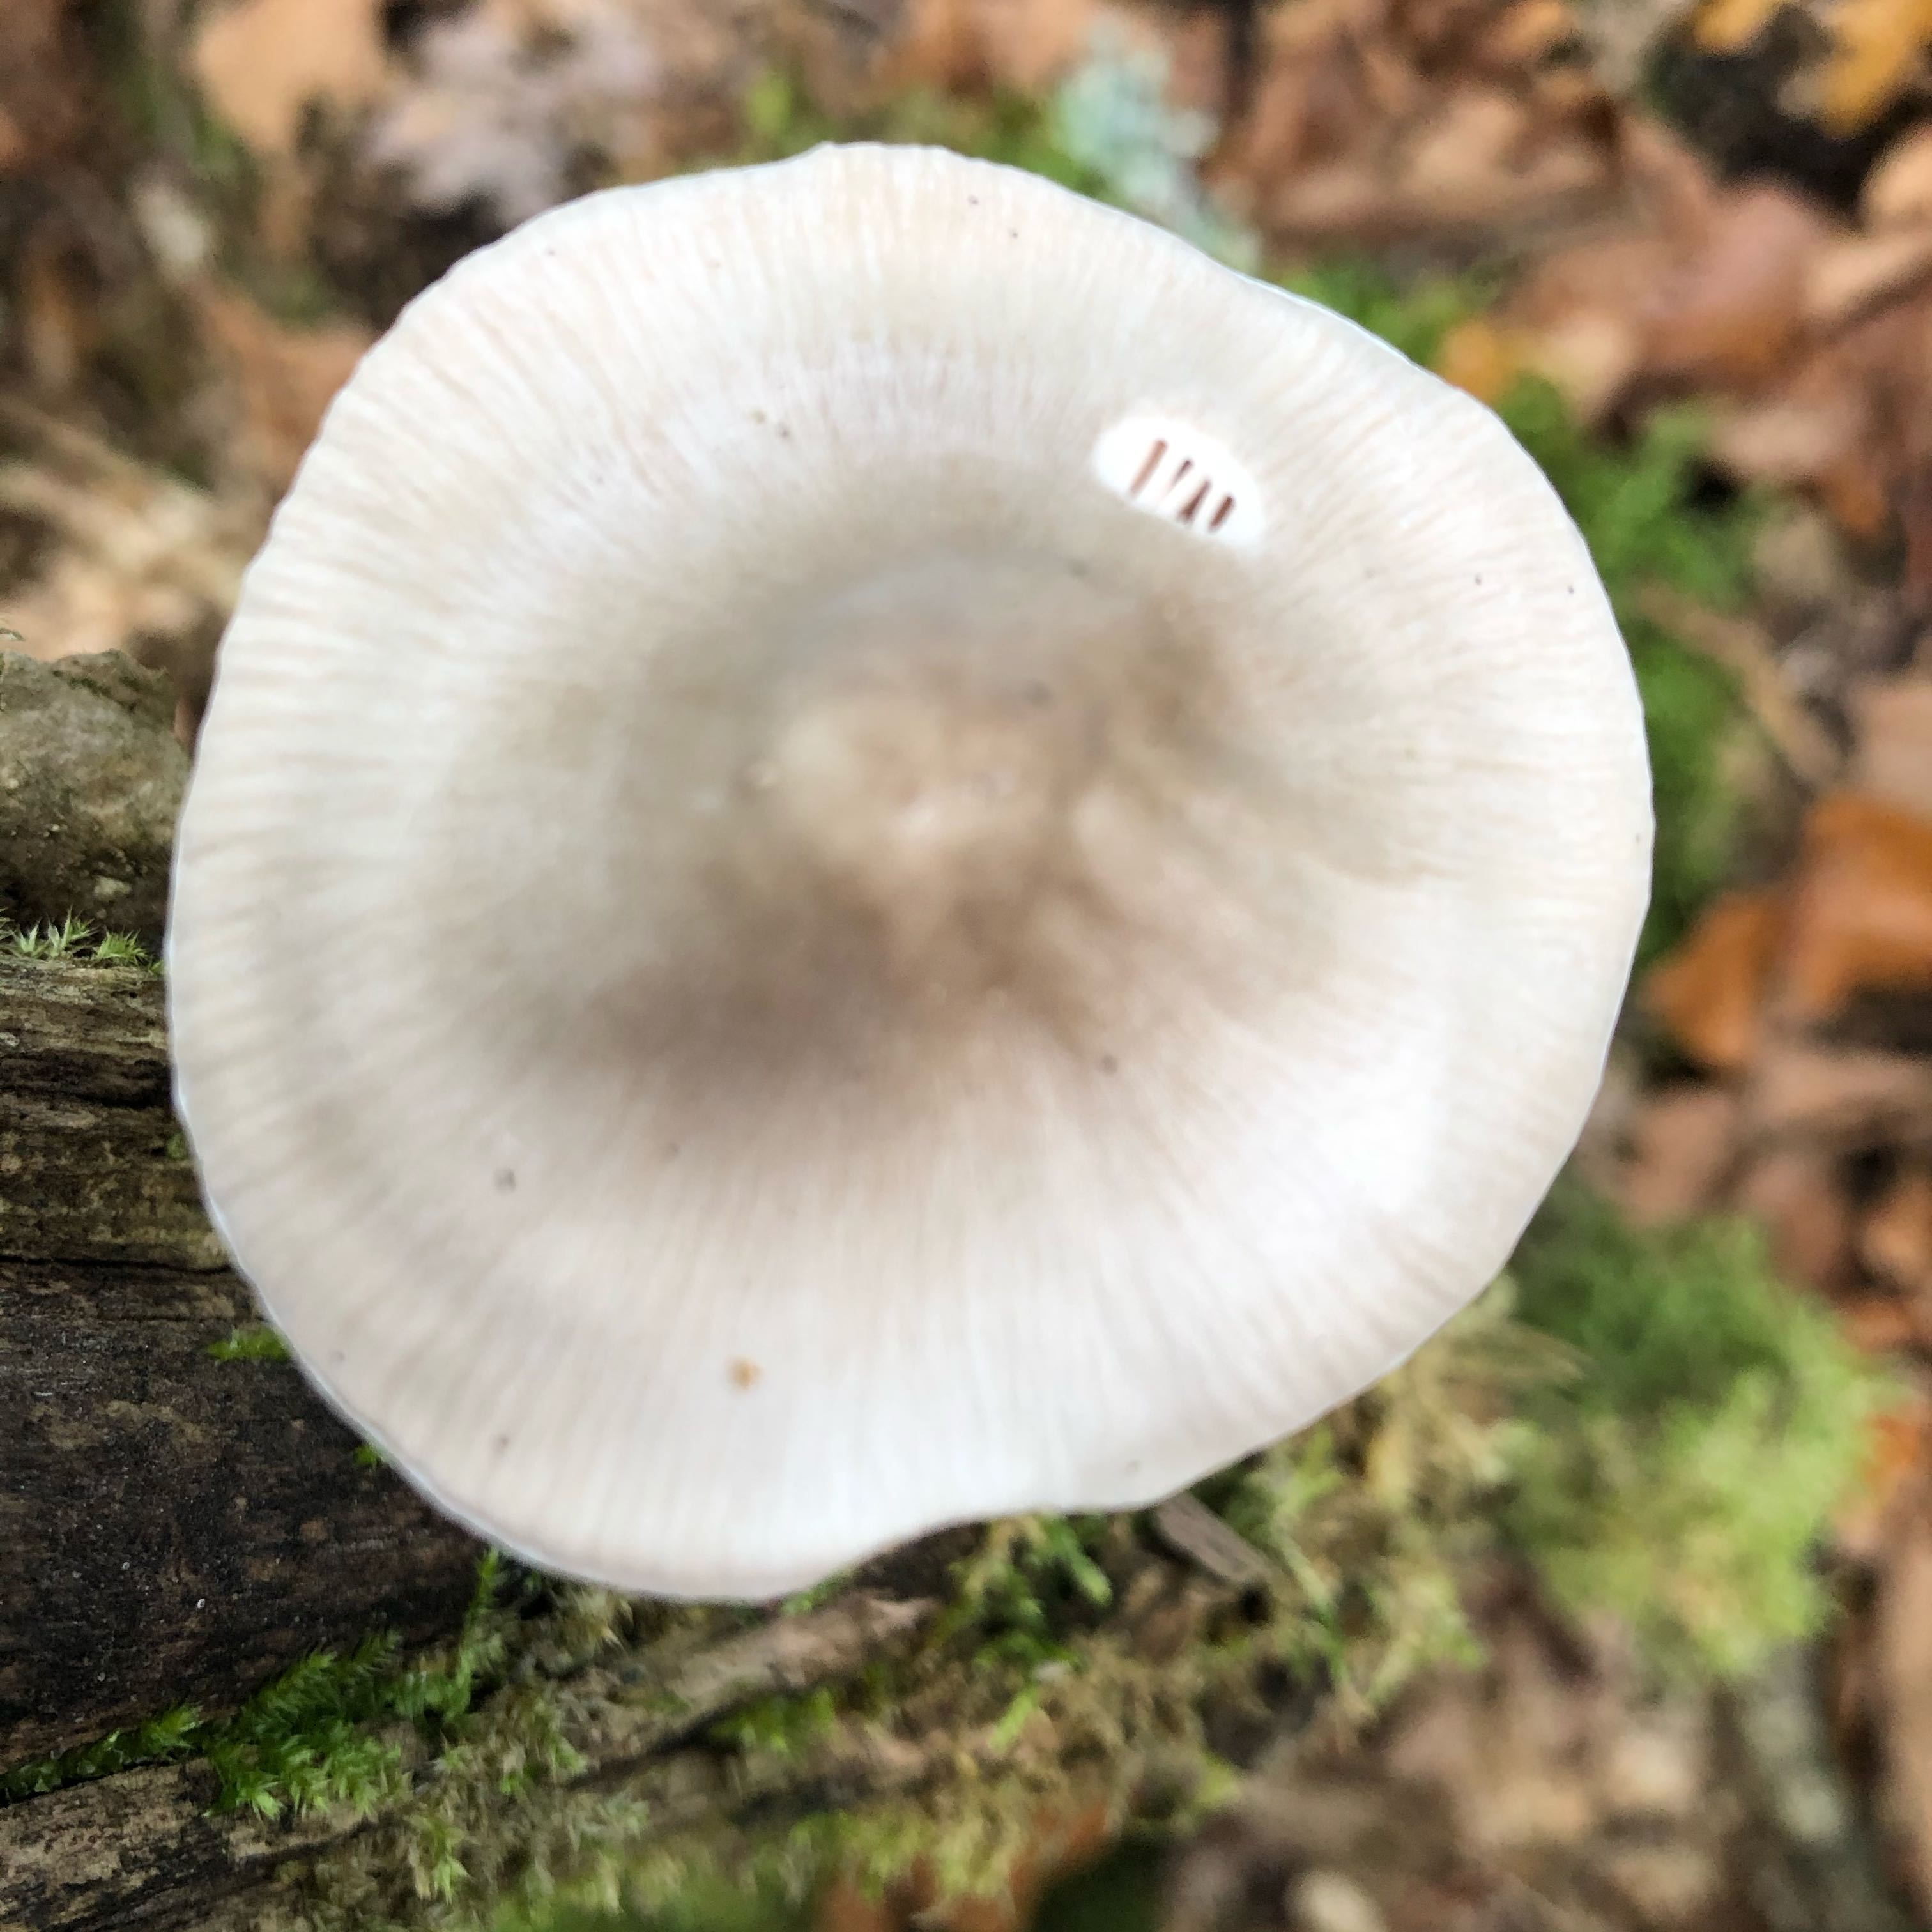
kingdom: Fungi
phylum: Basidiomycota
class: Agaricomycetes
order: Agaricales
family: Mycenaceae
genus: Mycena
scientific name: Mycena polygramma
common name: mangestribet huesvamp
